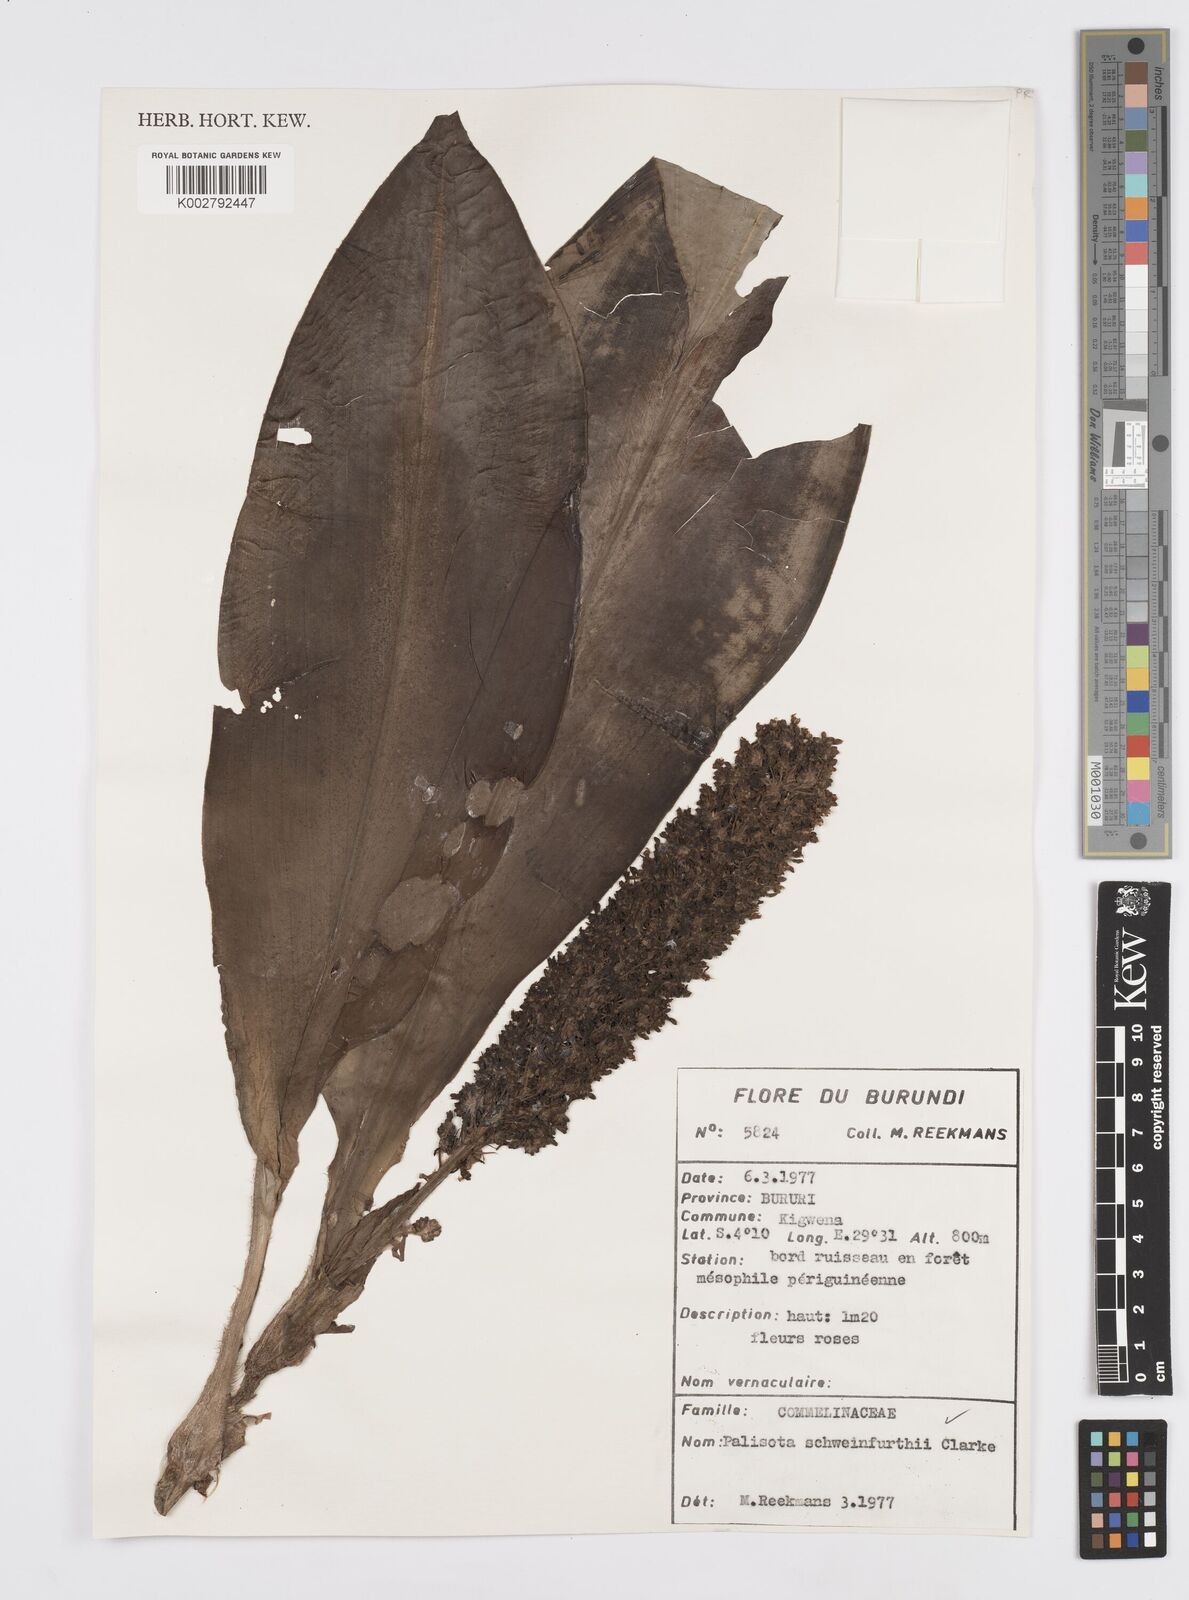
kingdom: Plantae
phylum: Tracheophyta
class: Liliopsida
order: Commelinales
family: Commelinaceae
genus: Palisota
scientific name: Palisota schweinfurthii
